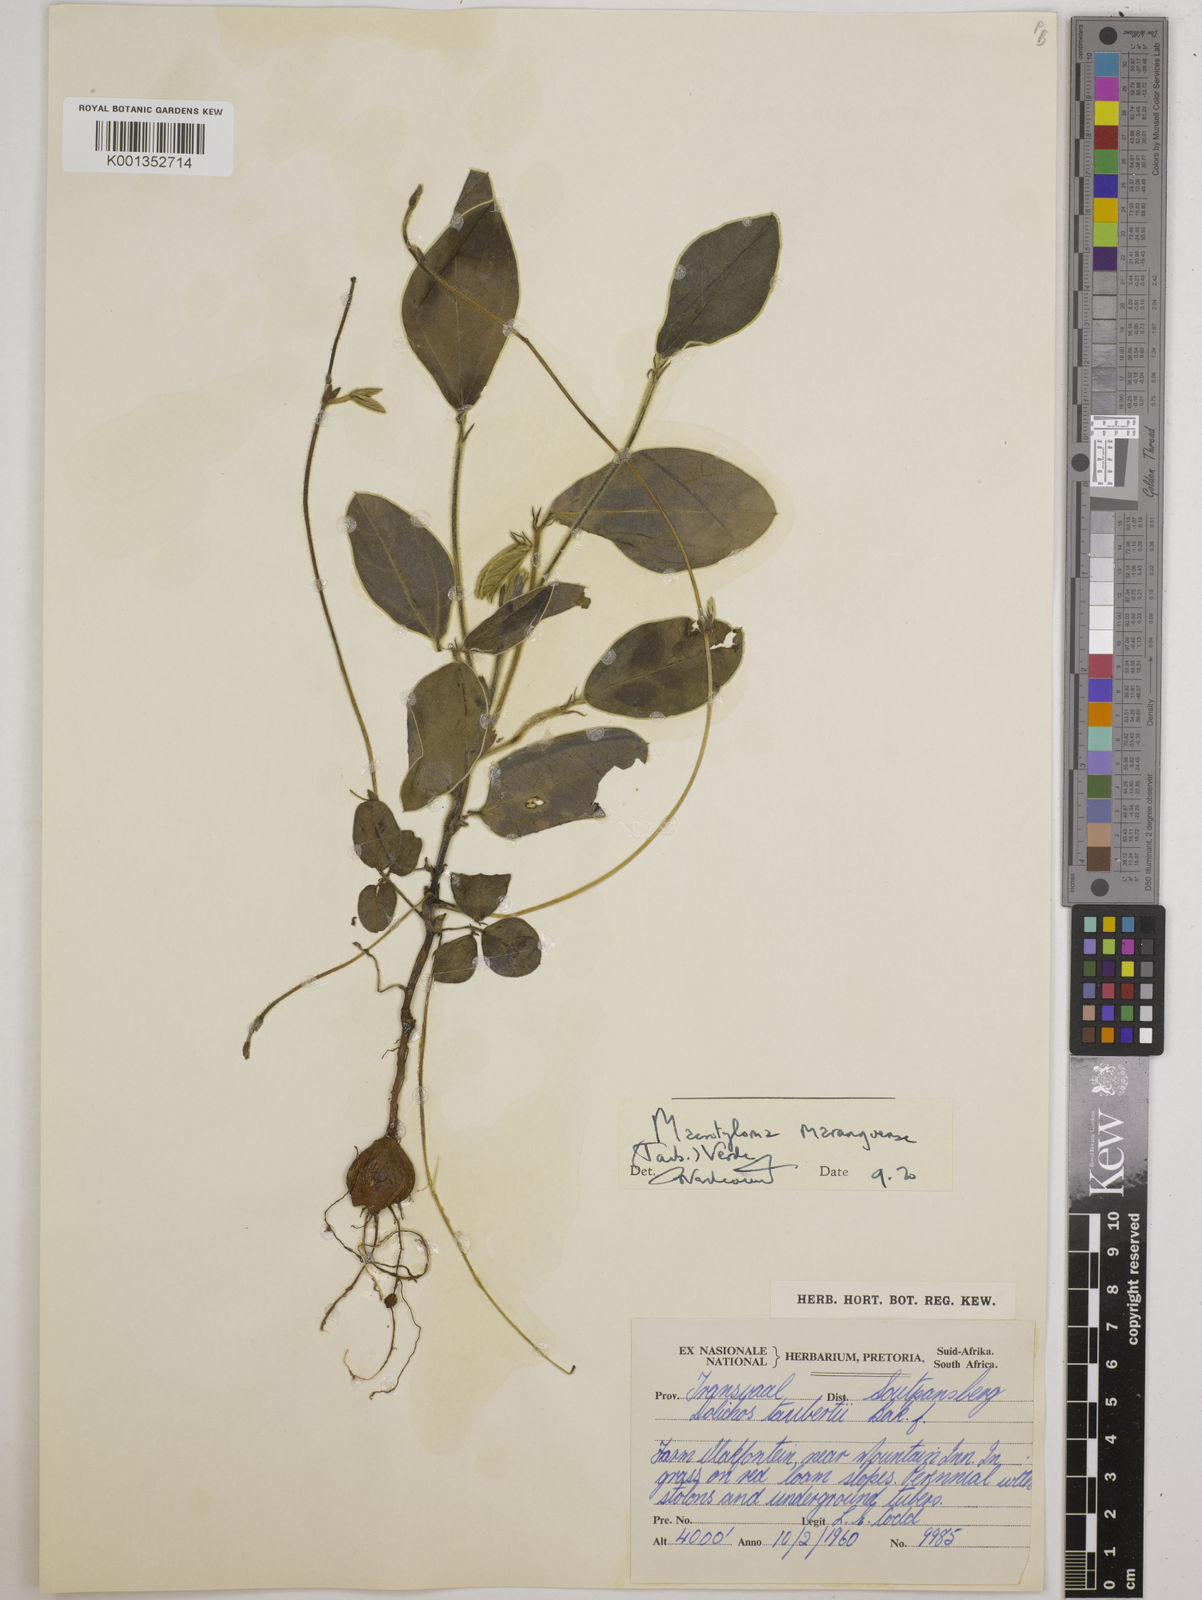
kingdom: Plantae
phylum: Tracheophyta
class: Magnoliopsida
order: Fabales
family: Fabaceae
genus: Macrotyloma
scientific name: Macrotyloma maranguense
